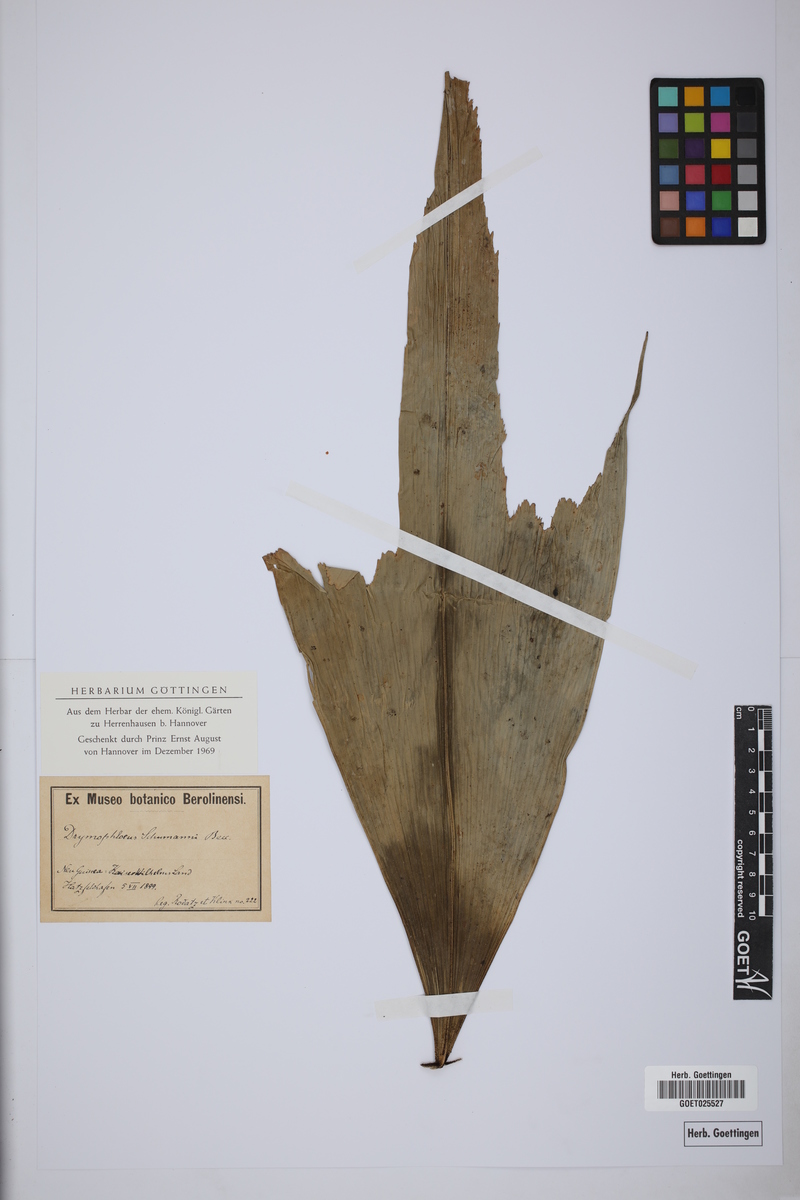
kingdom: Plantae
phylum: Tracheophyta
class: Liliopsida
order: Arecales
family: Arecaceae
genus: Brassiophoenix
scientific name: Brassiophoenix schumannii
